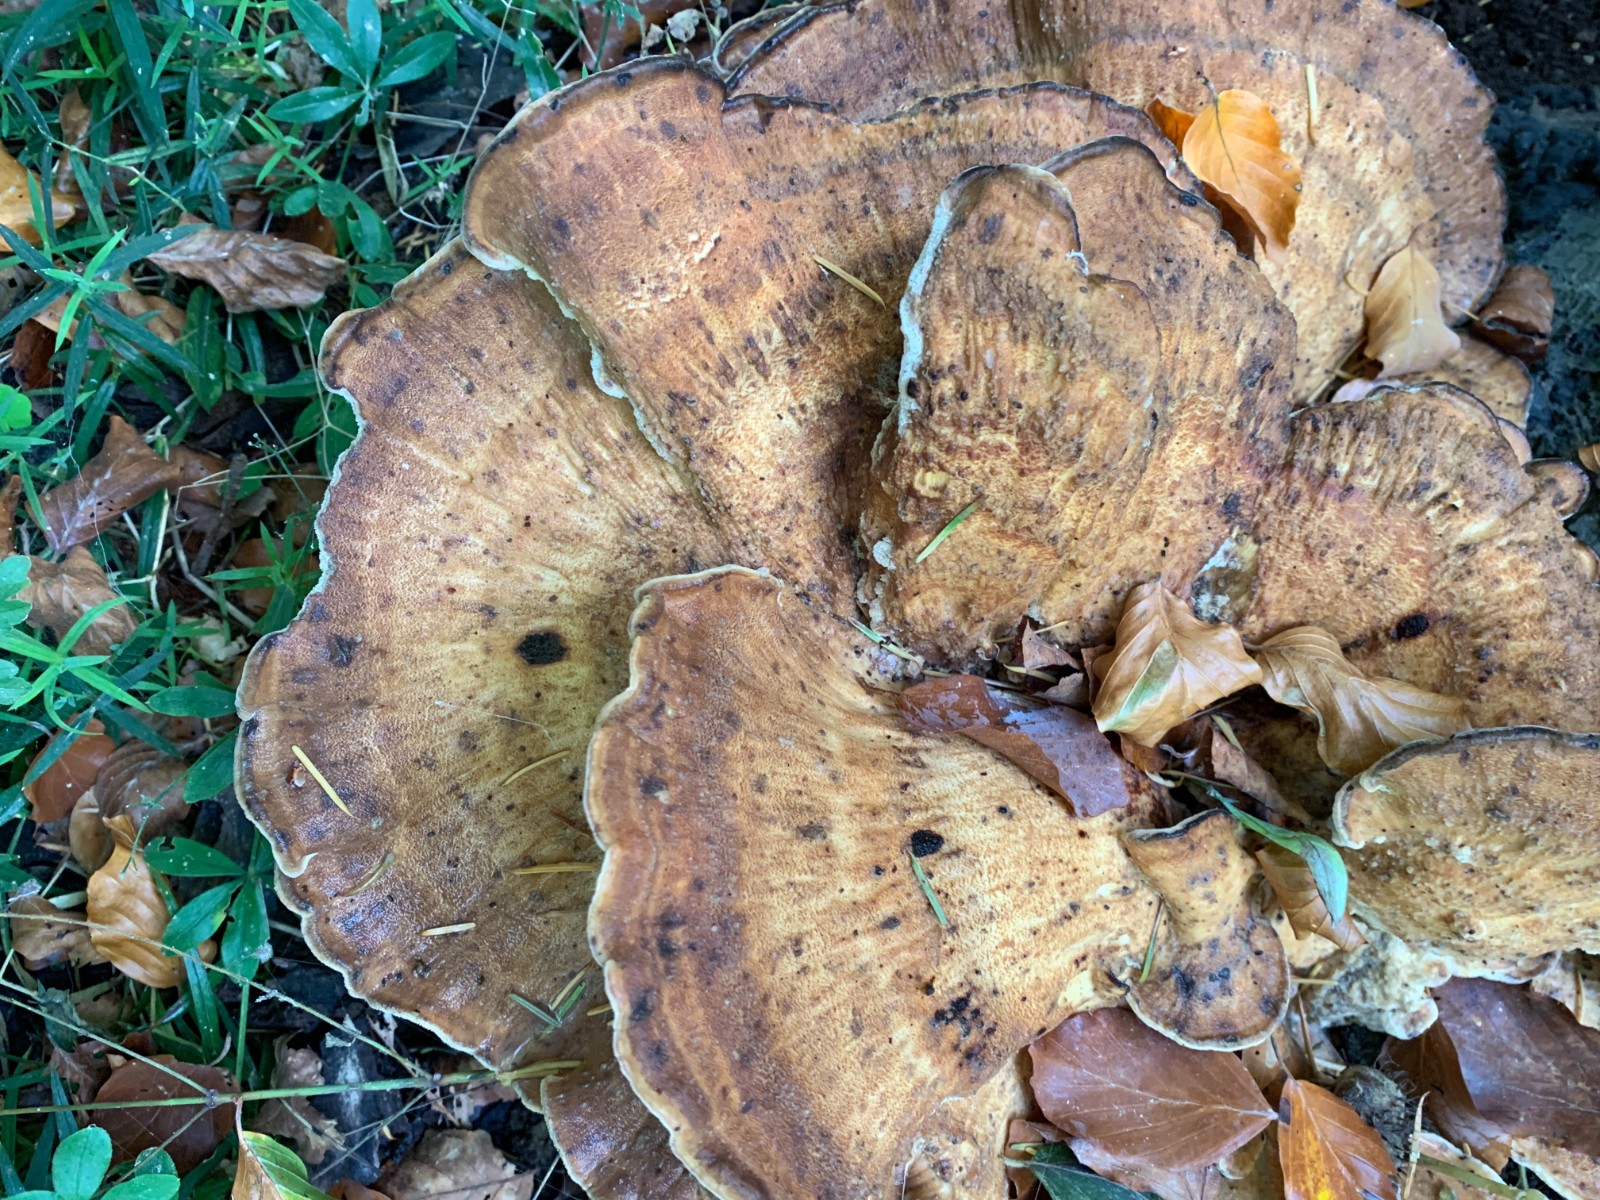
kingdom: Fungi
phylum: Basidiomycota
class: Agaricomycetes
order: Polyporales
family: Meripilaceae
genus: Meripilus
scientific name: Meripilus giganteus
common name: kæmpeporesvamp
